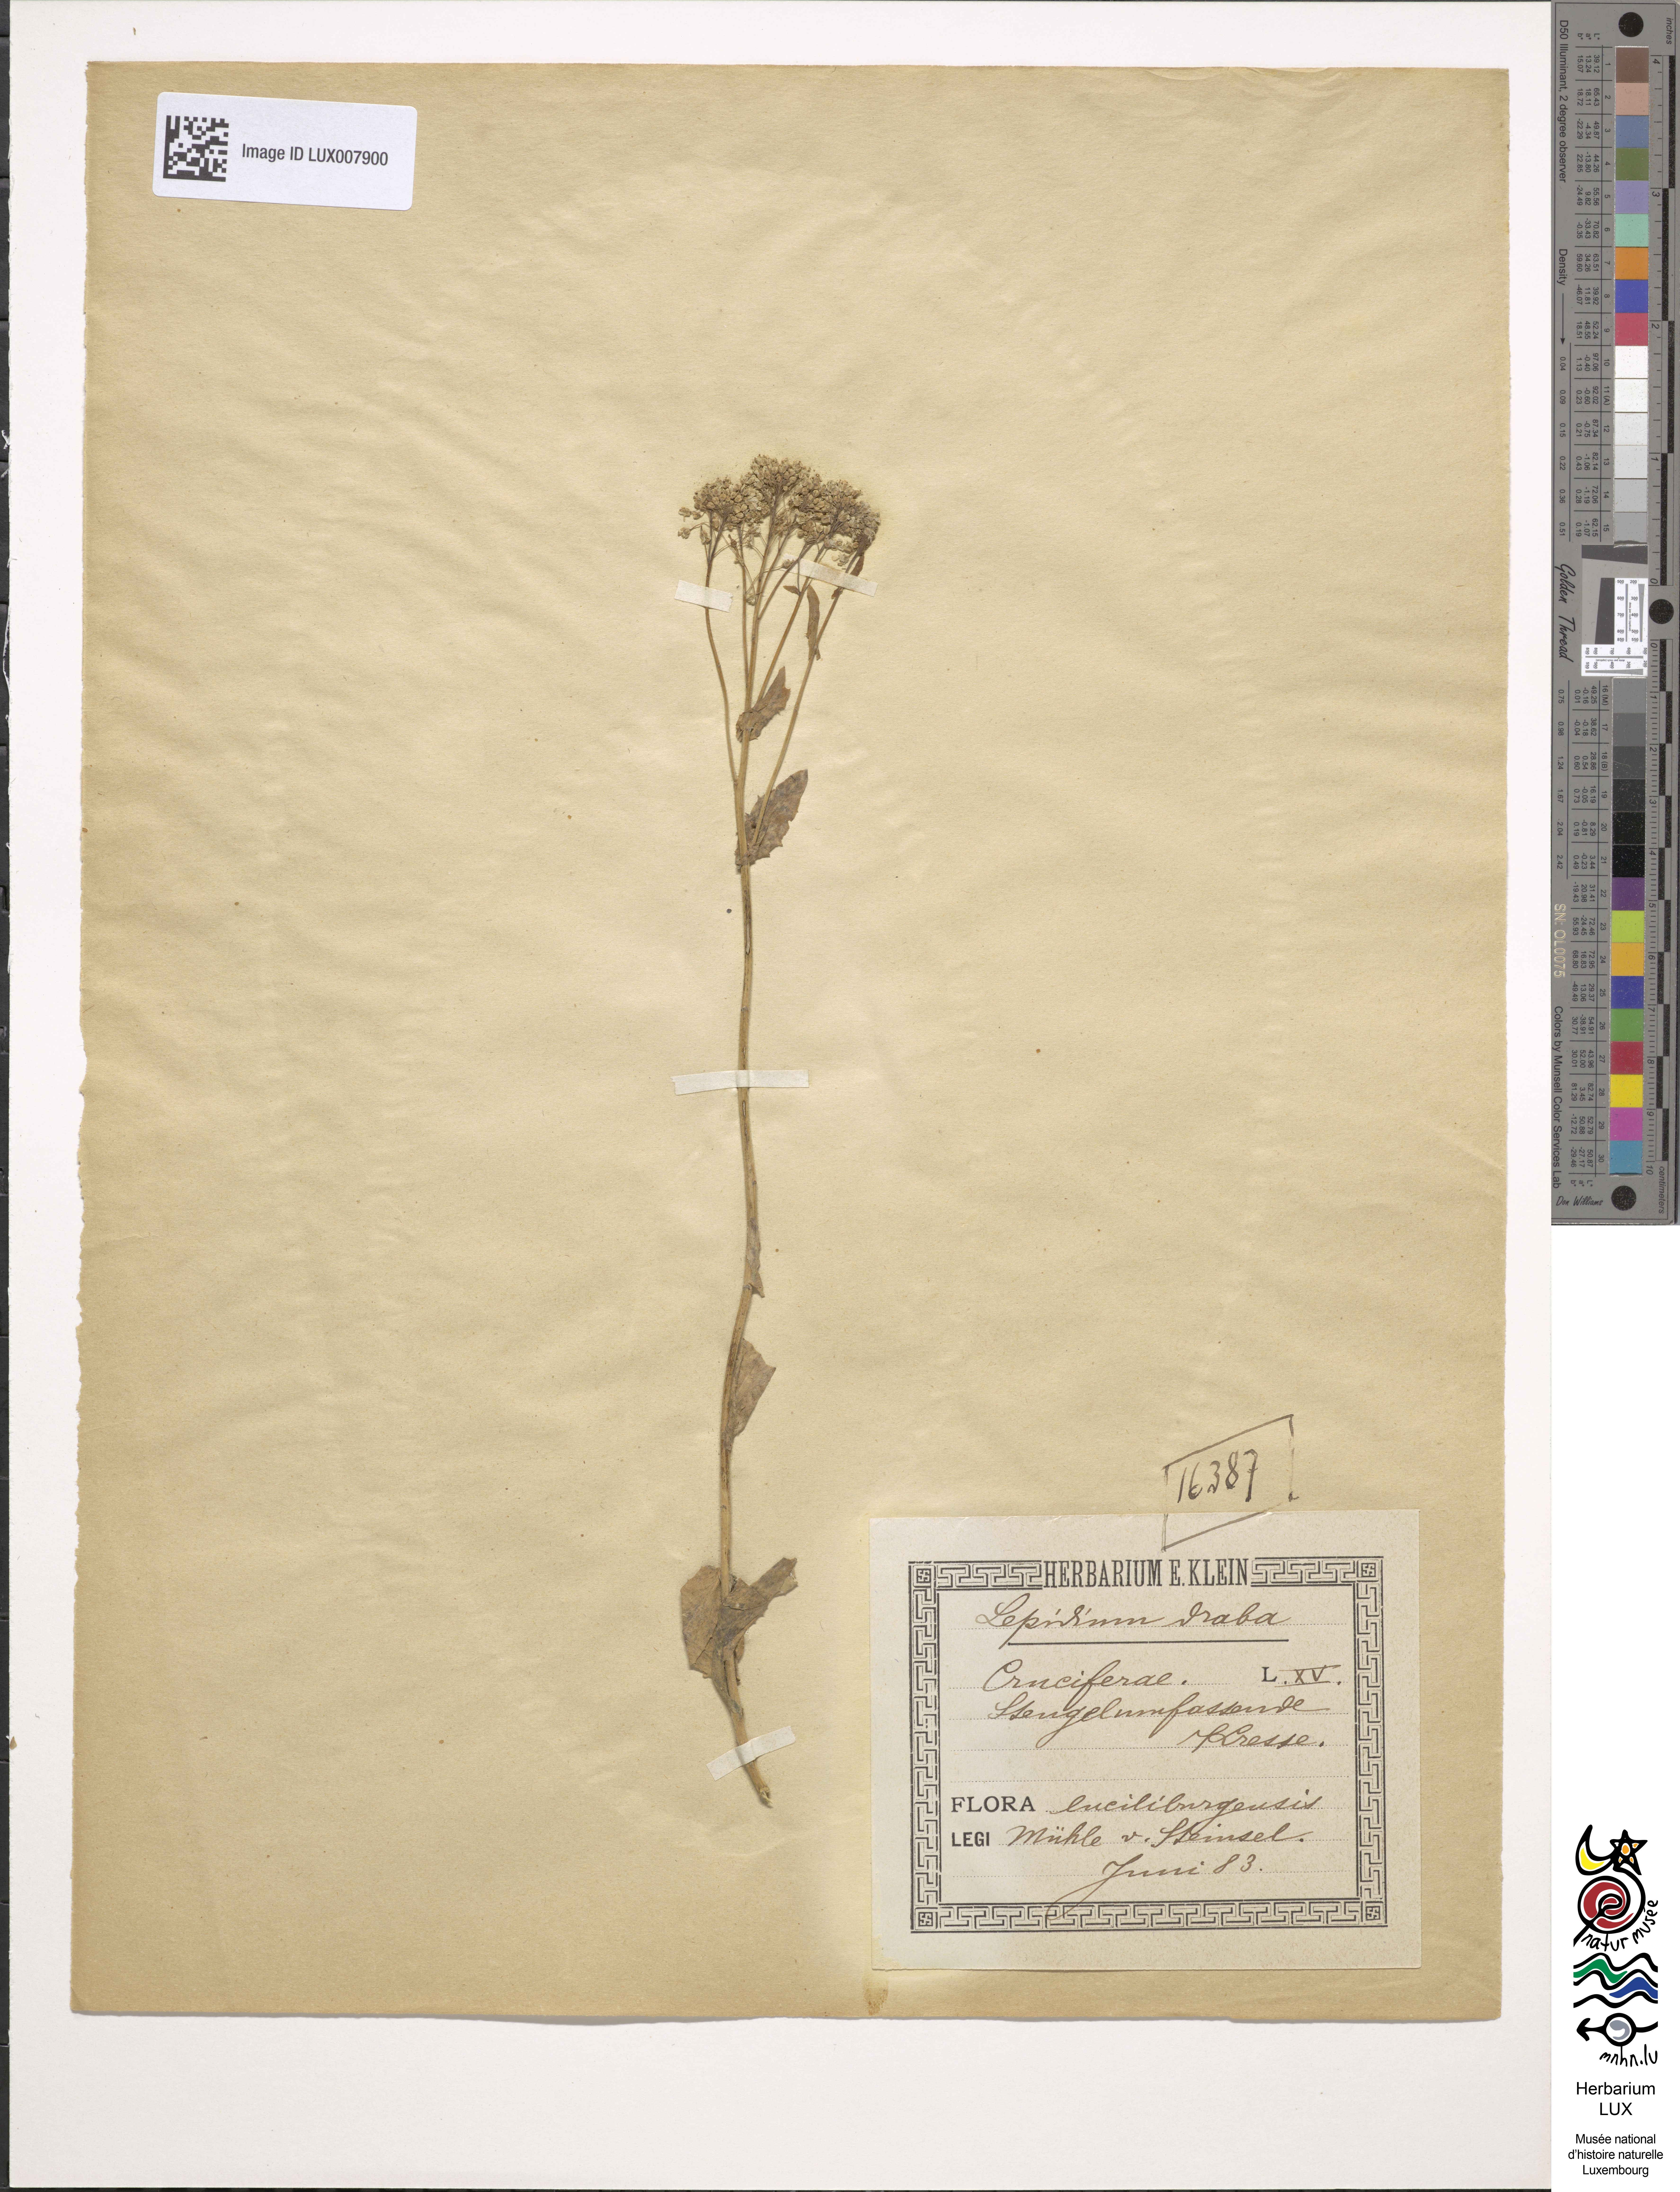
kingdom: Plantae
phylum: Tracheophyta
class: Magnoliopsida
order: Brassicales
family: Brassicaceae
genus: Lepidium
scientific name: Lepidium draba
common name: Hoary cress
